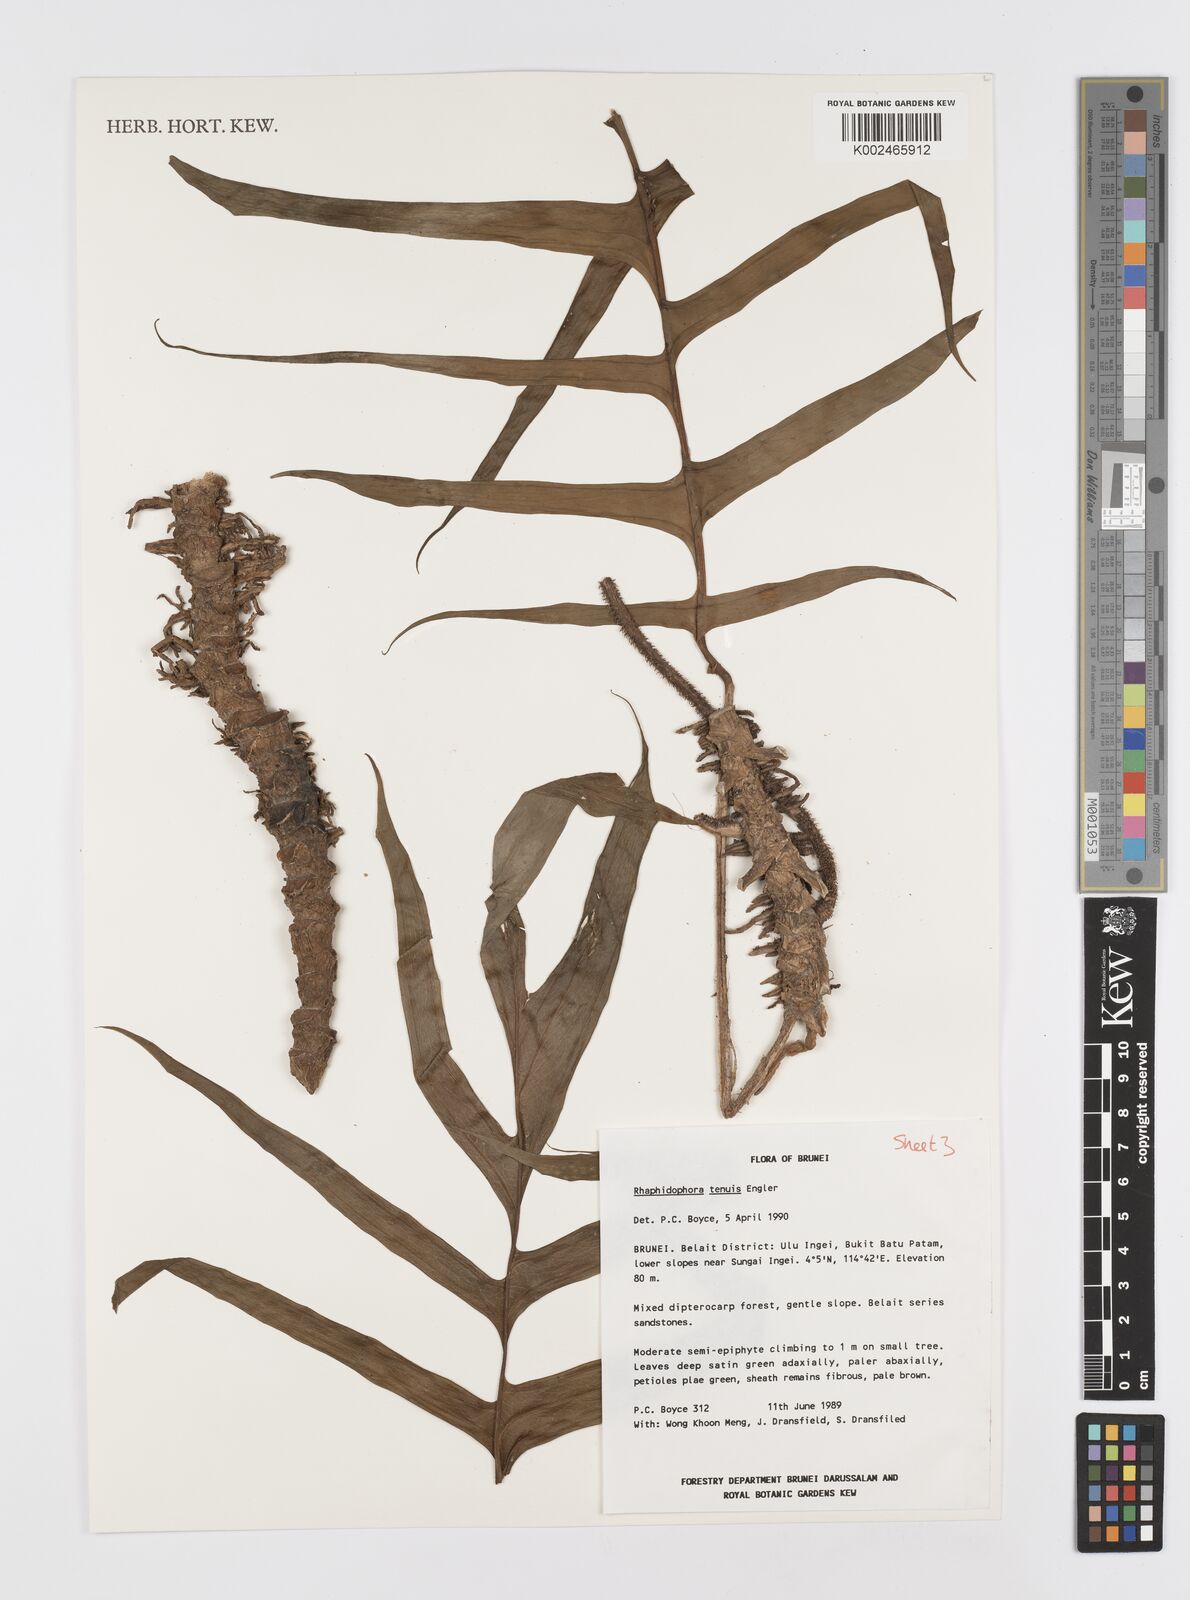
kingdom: Plantae
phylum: Tracheophyta
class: Liliopsida
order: Alismatales
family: Araceae
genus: Rhaphidophora
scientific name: Rhaphidophora korthalsii
